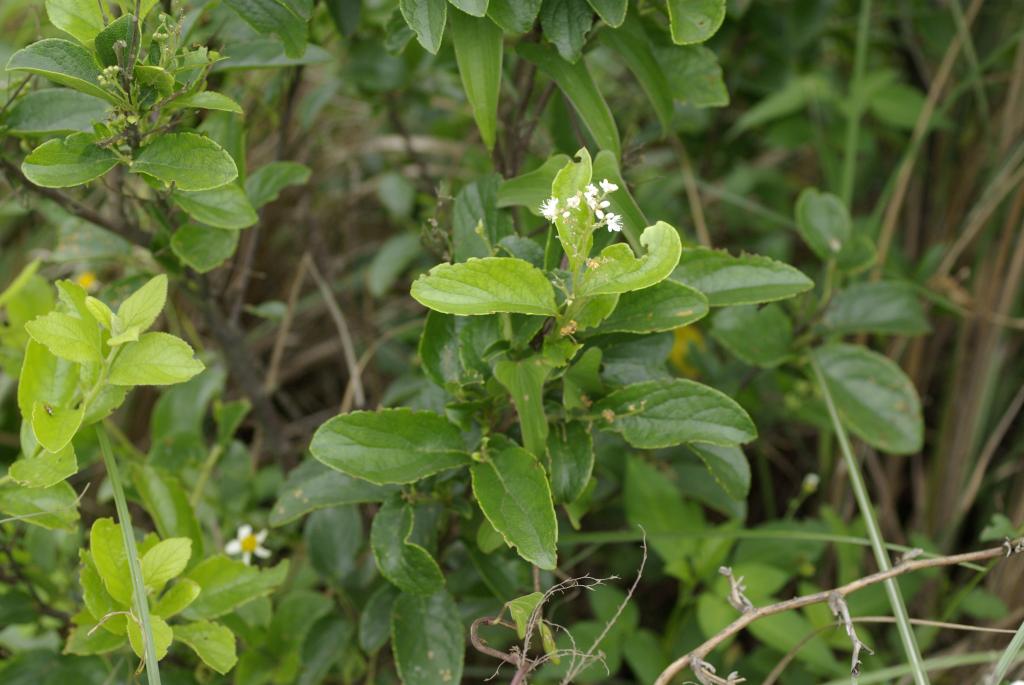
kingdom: Plantae
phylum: Tracheophyta
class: Magnoliopsida
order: Ericales
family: Symplocaceae
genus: Symplocos
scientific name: Symplocos paniculata
